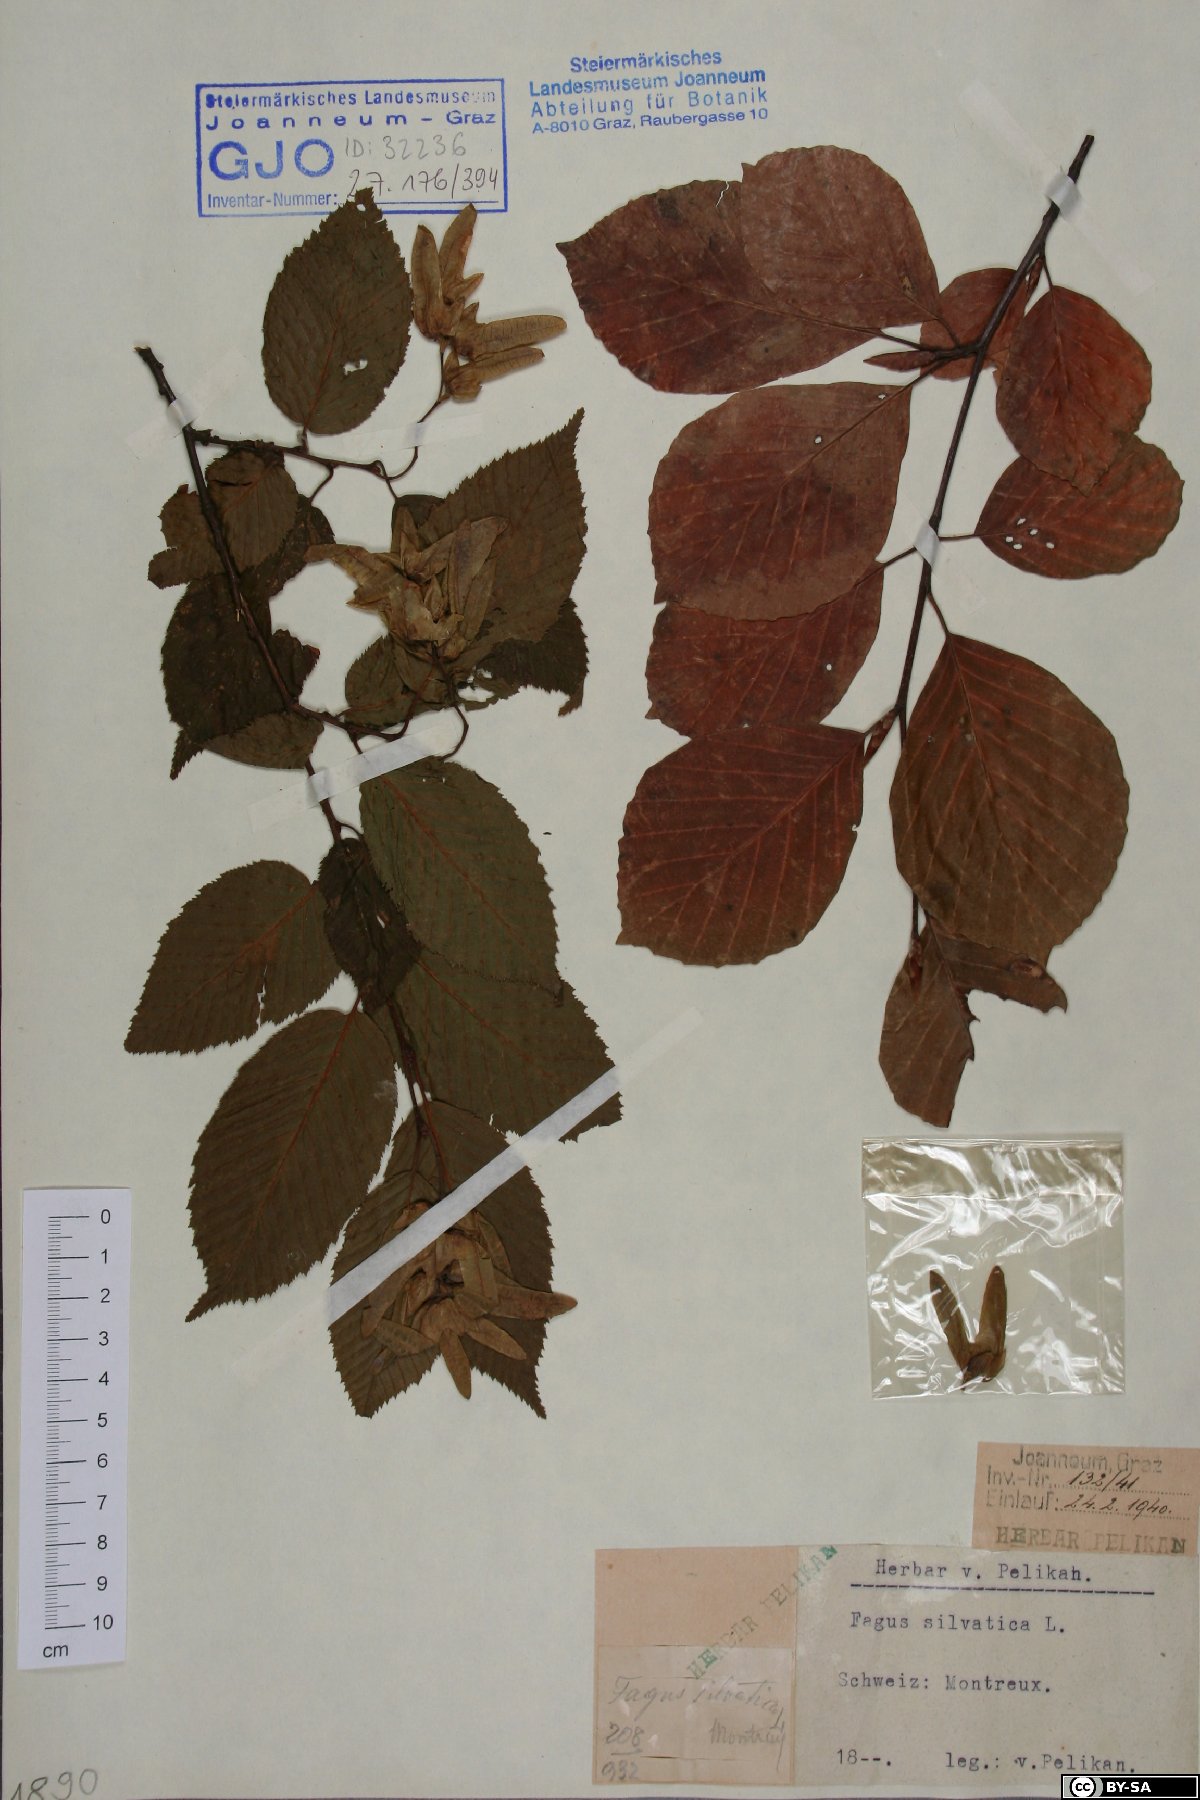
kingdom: Plantae
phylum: Tracheophyta
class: Magnoliopsida
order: Fagales
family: Fagaceae
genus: Fagus
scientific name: Fagus sylvatica
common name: Beech
